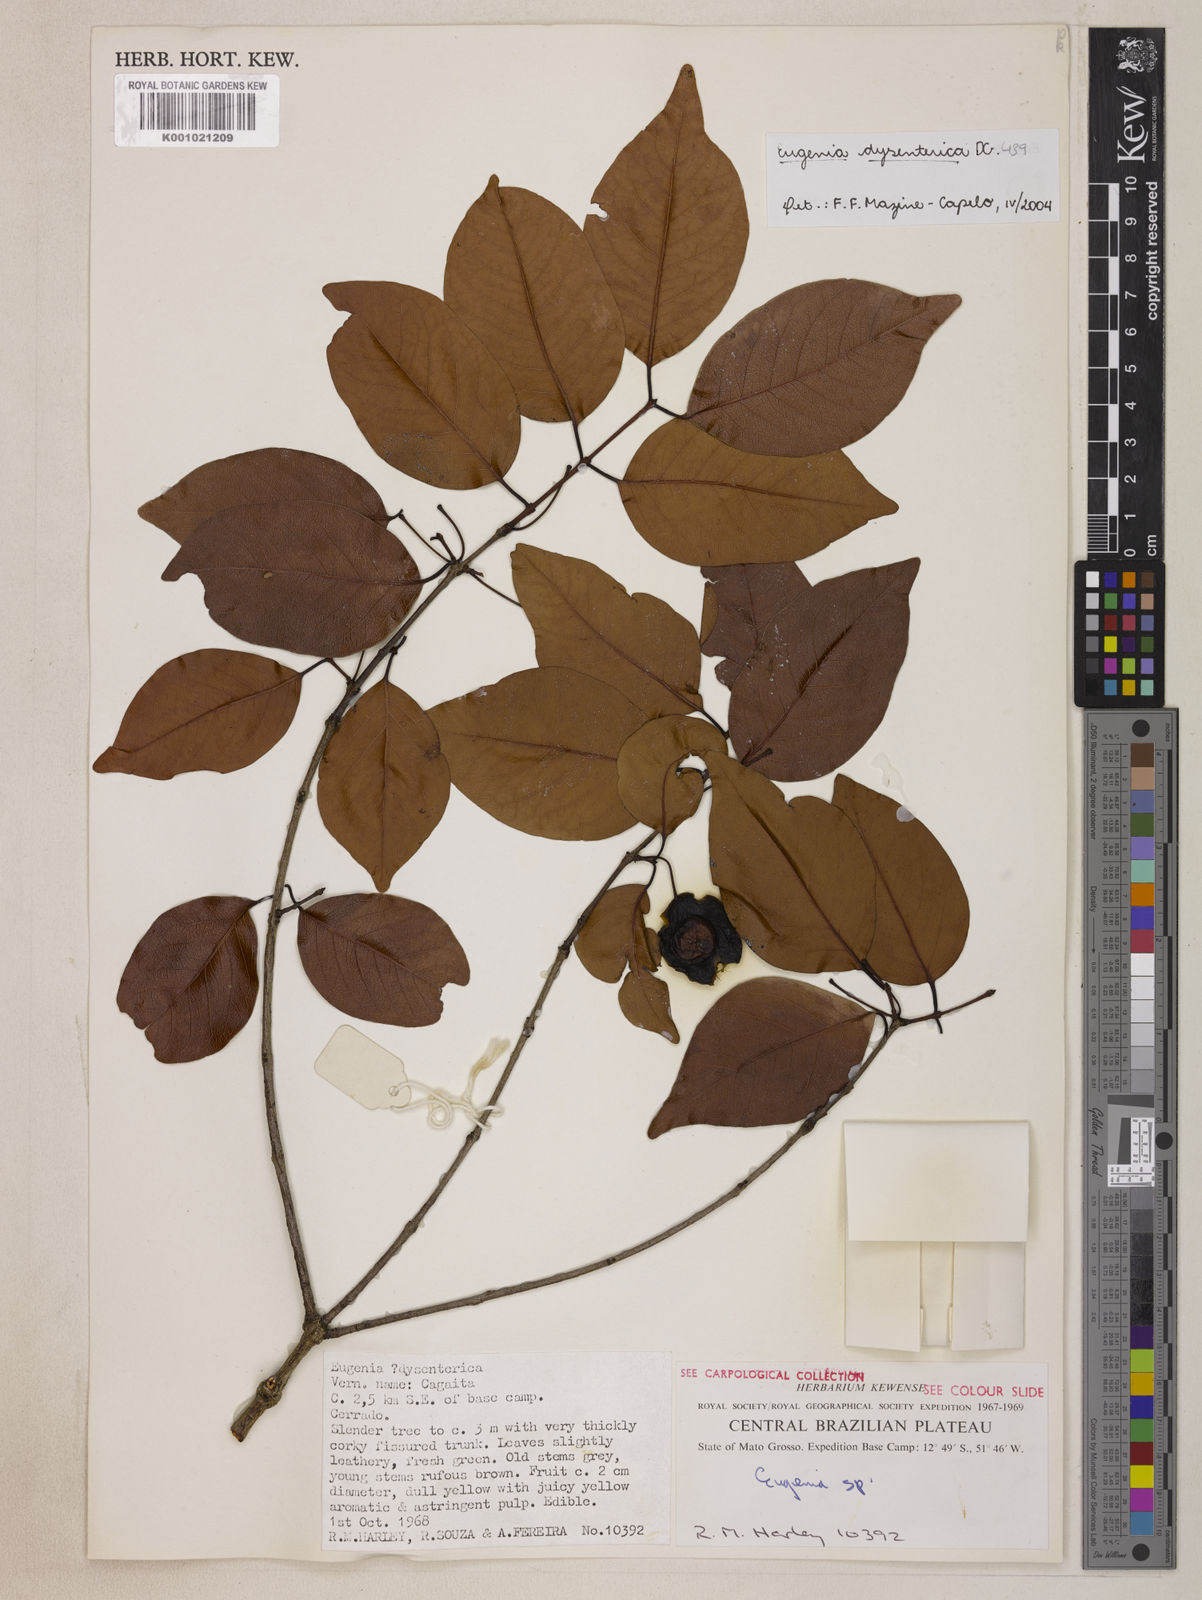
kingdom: Plantae
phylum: Tracheophyta
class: Magnoliopsida
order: Myrtales
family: Myrtaceae
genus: Eugenia
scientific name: Eugenia dysenterica
